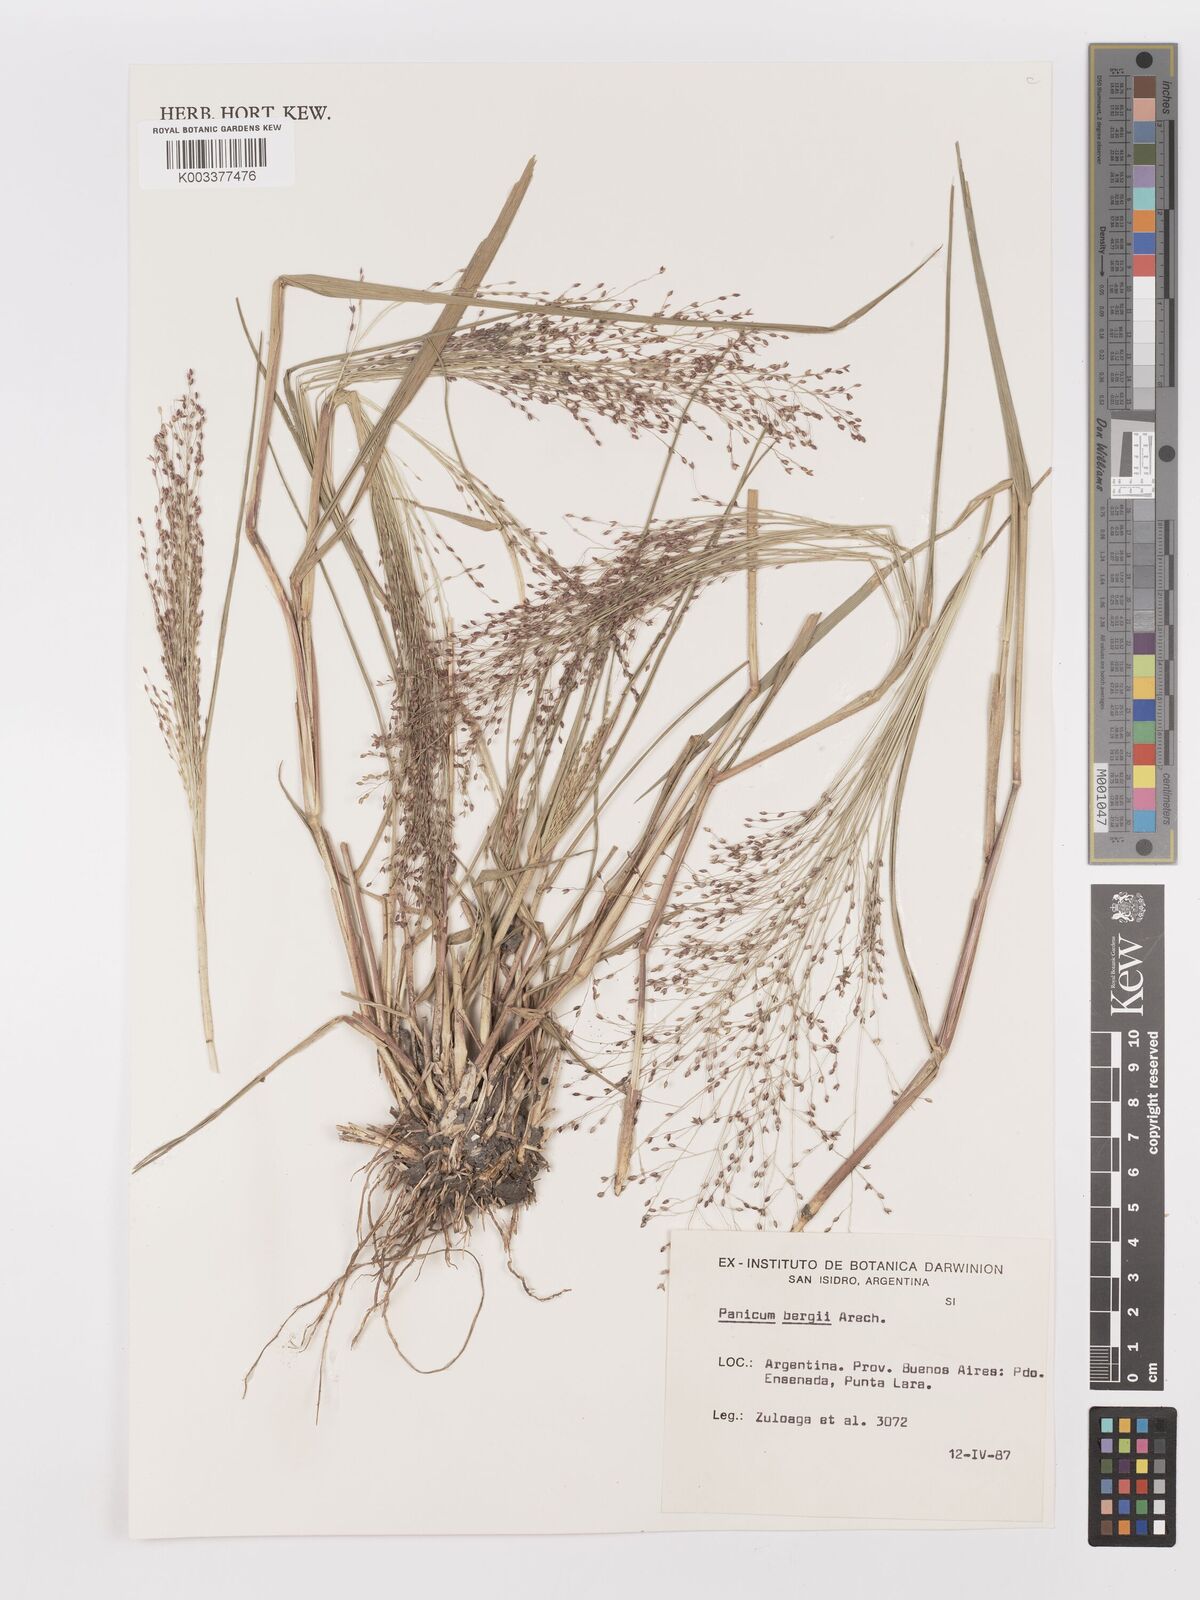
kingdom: Plantae
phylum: Tracheophyta
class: Liliopsida
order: Poales
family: Poaceae
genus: Panicum
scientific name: Panicum bergii
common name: Berg's panicgrass
